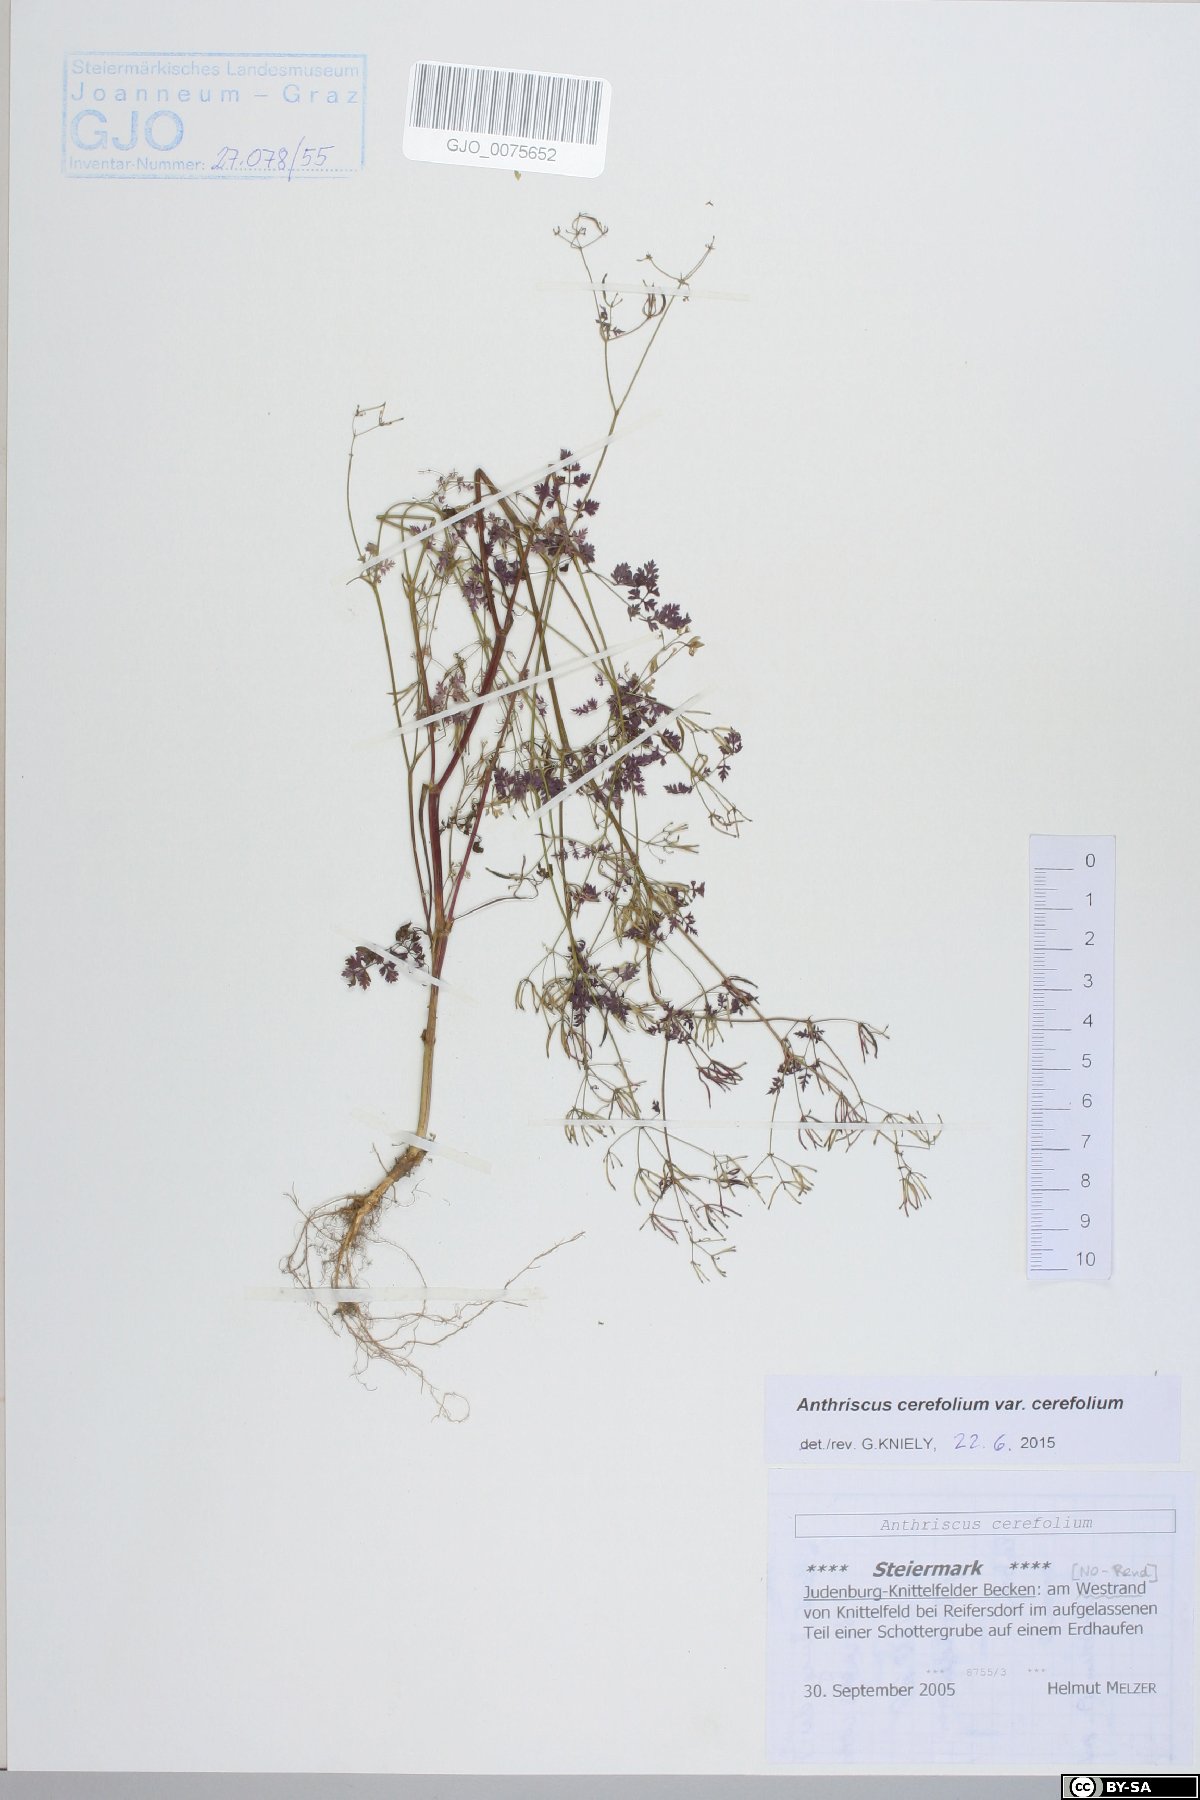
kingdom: Plantae
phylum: Tracheophyta
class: Magnoliopsida
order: Apiales
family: Apiaceae
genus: Anthriscus
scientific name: Anthriscus cerefolium
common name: Garden chervil
